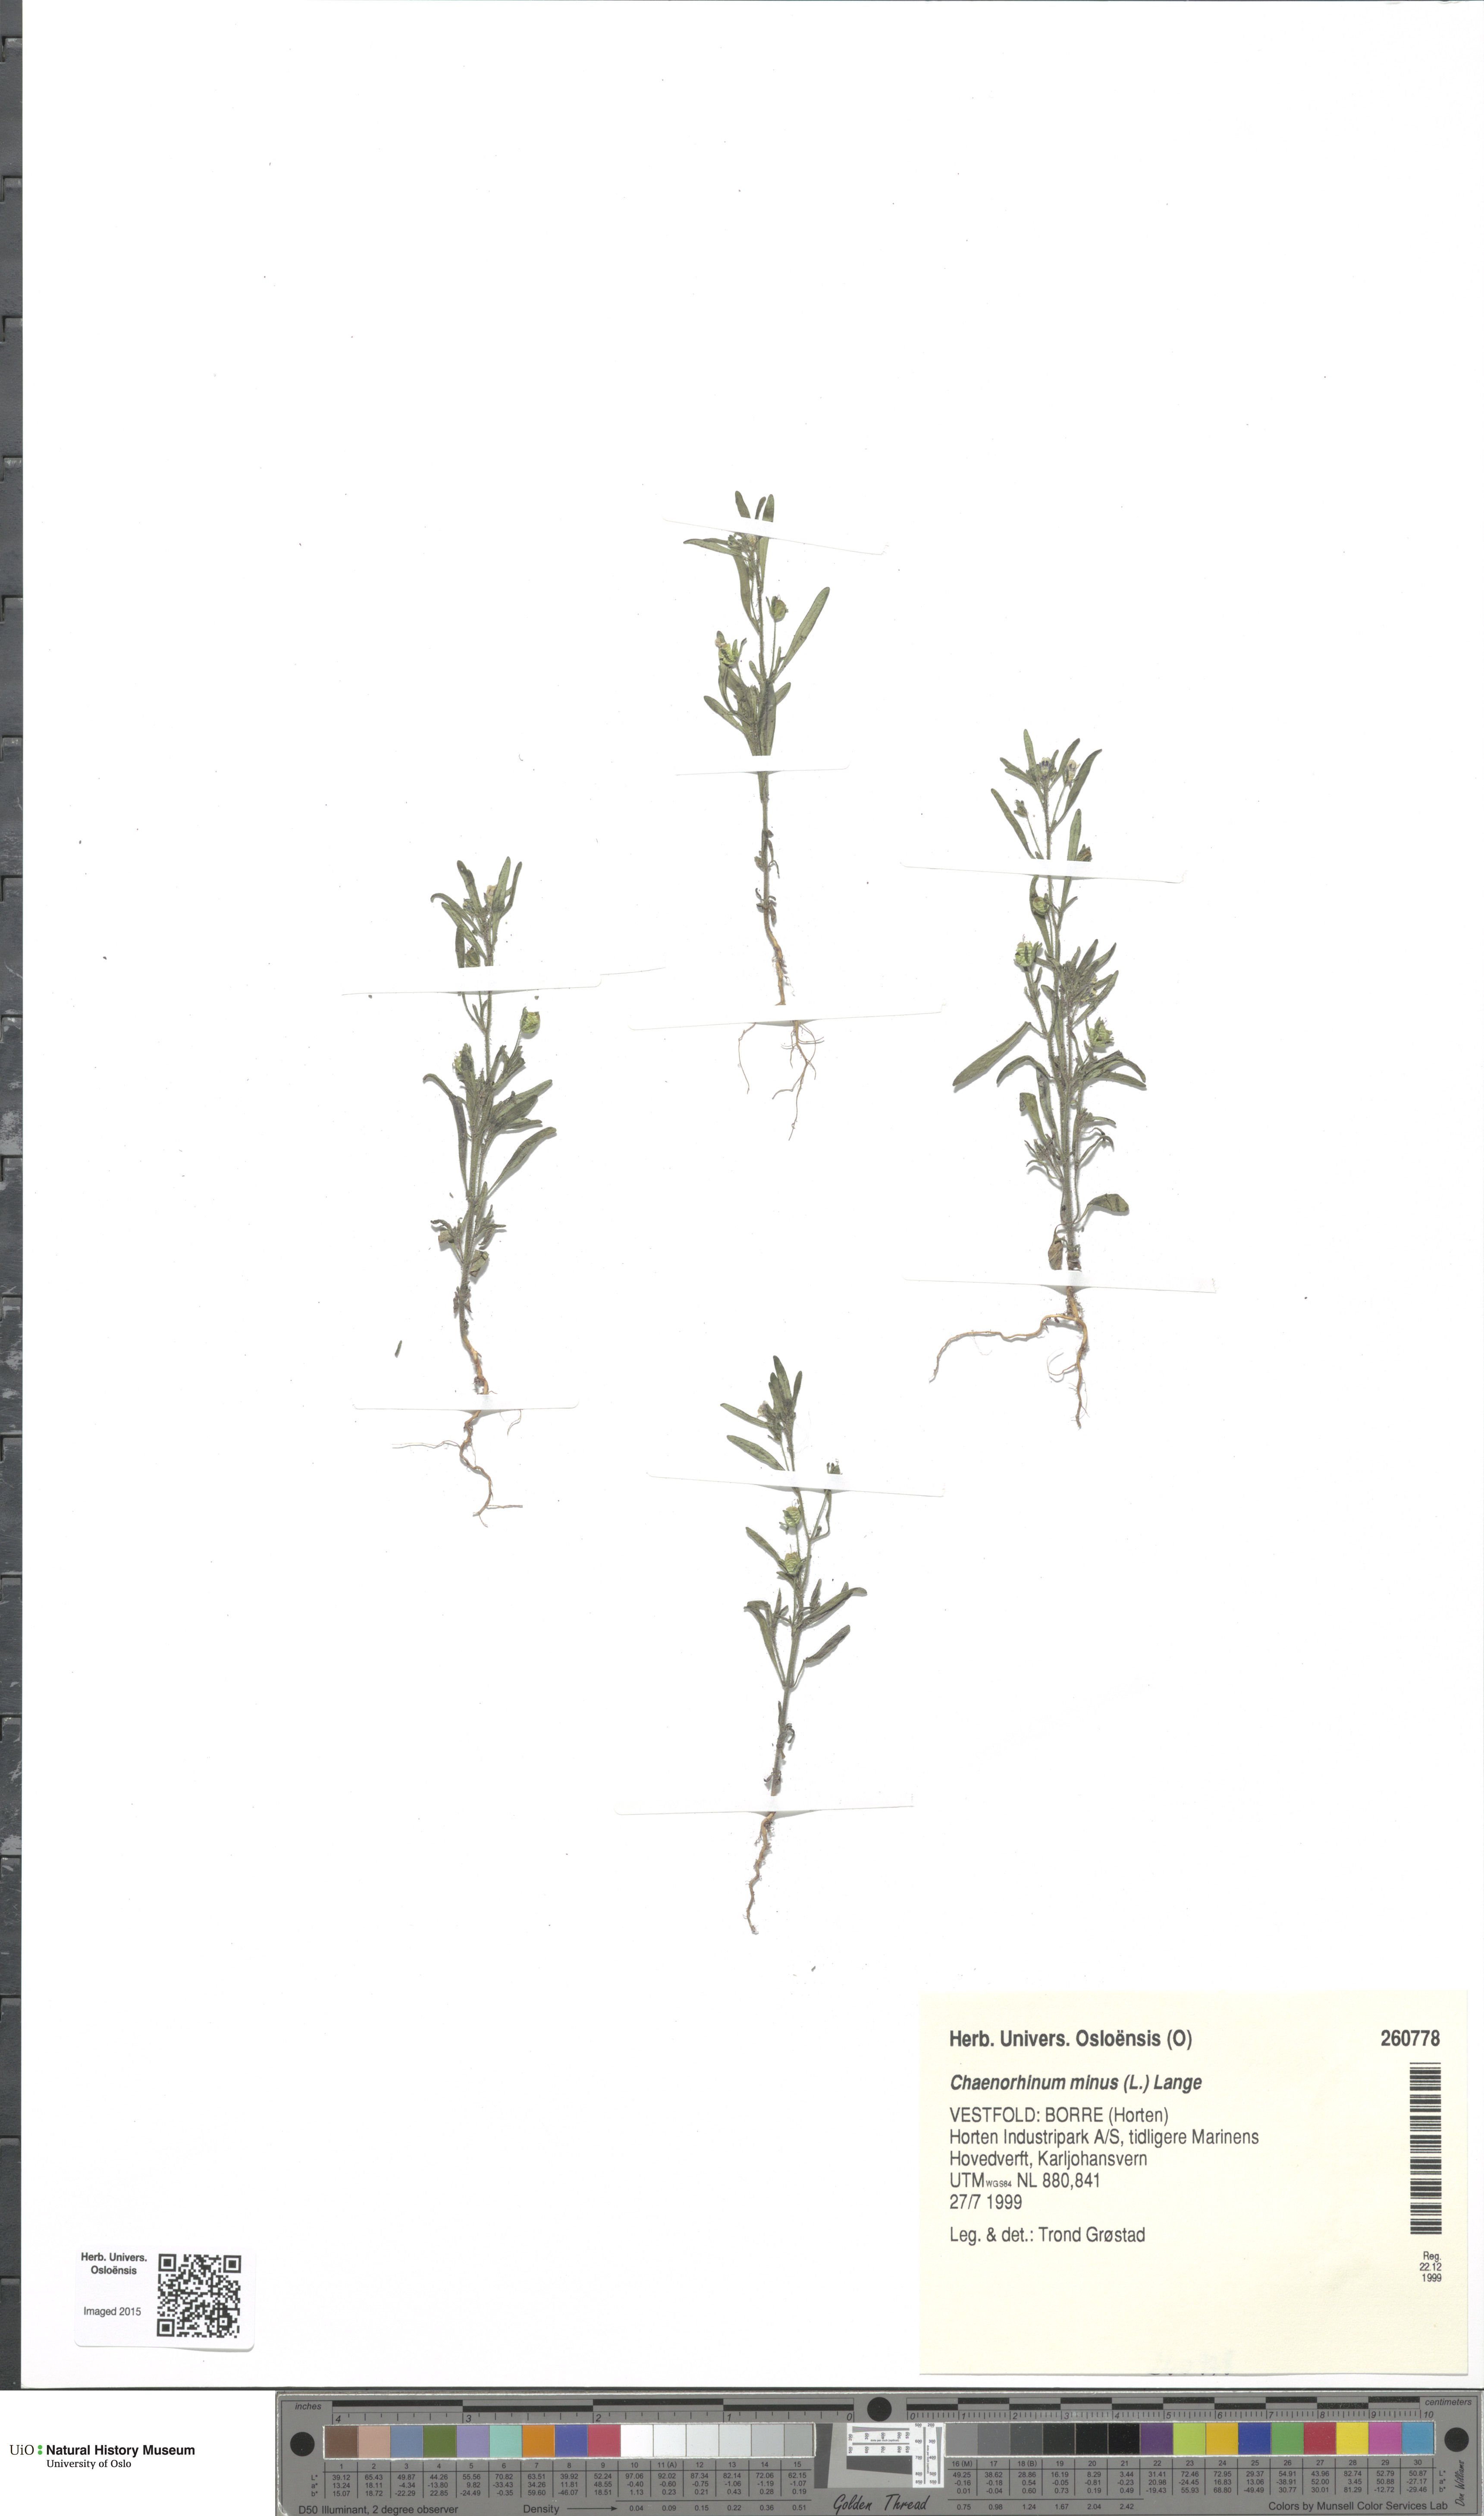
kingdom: Plantae
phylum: Tracheophyta
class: Magnoliopsida
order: Lamiales
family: Plantaginaceae
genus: Chaenorhinum
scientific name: Chaenorhinum minus
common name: Dwarf snapdragon
